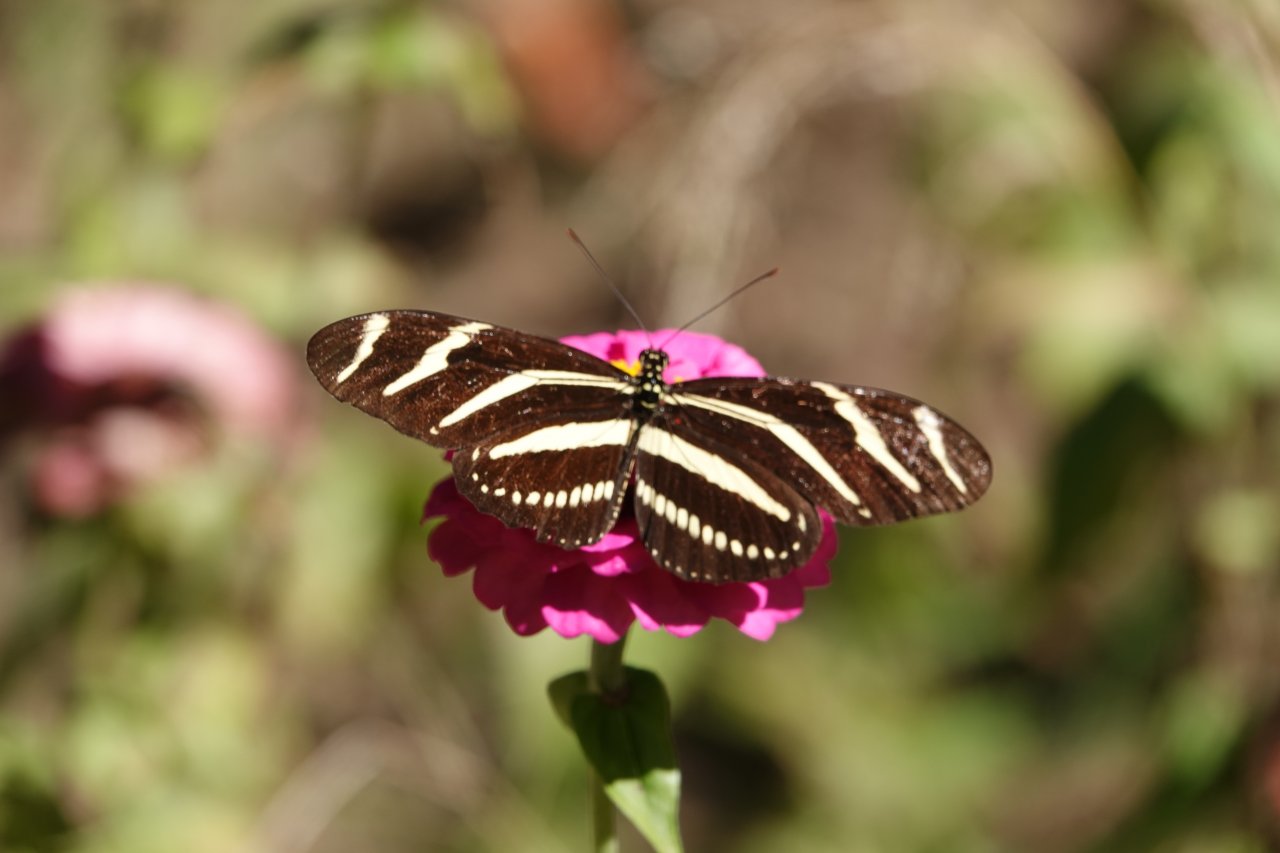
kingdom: Animalia
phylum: Arthropoda
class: Insecta
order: Lepidoptera
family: Nymphalidae
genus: Heliconius
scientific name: Heliconius charithonia
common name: Zebra Longwing
